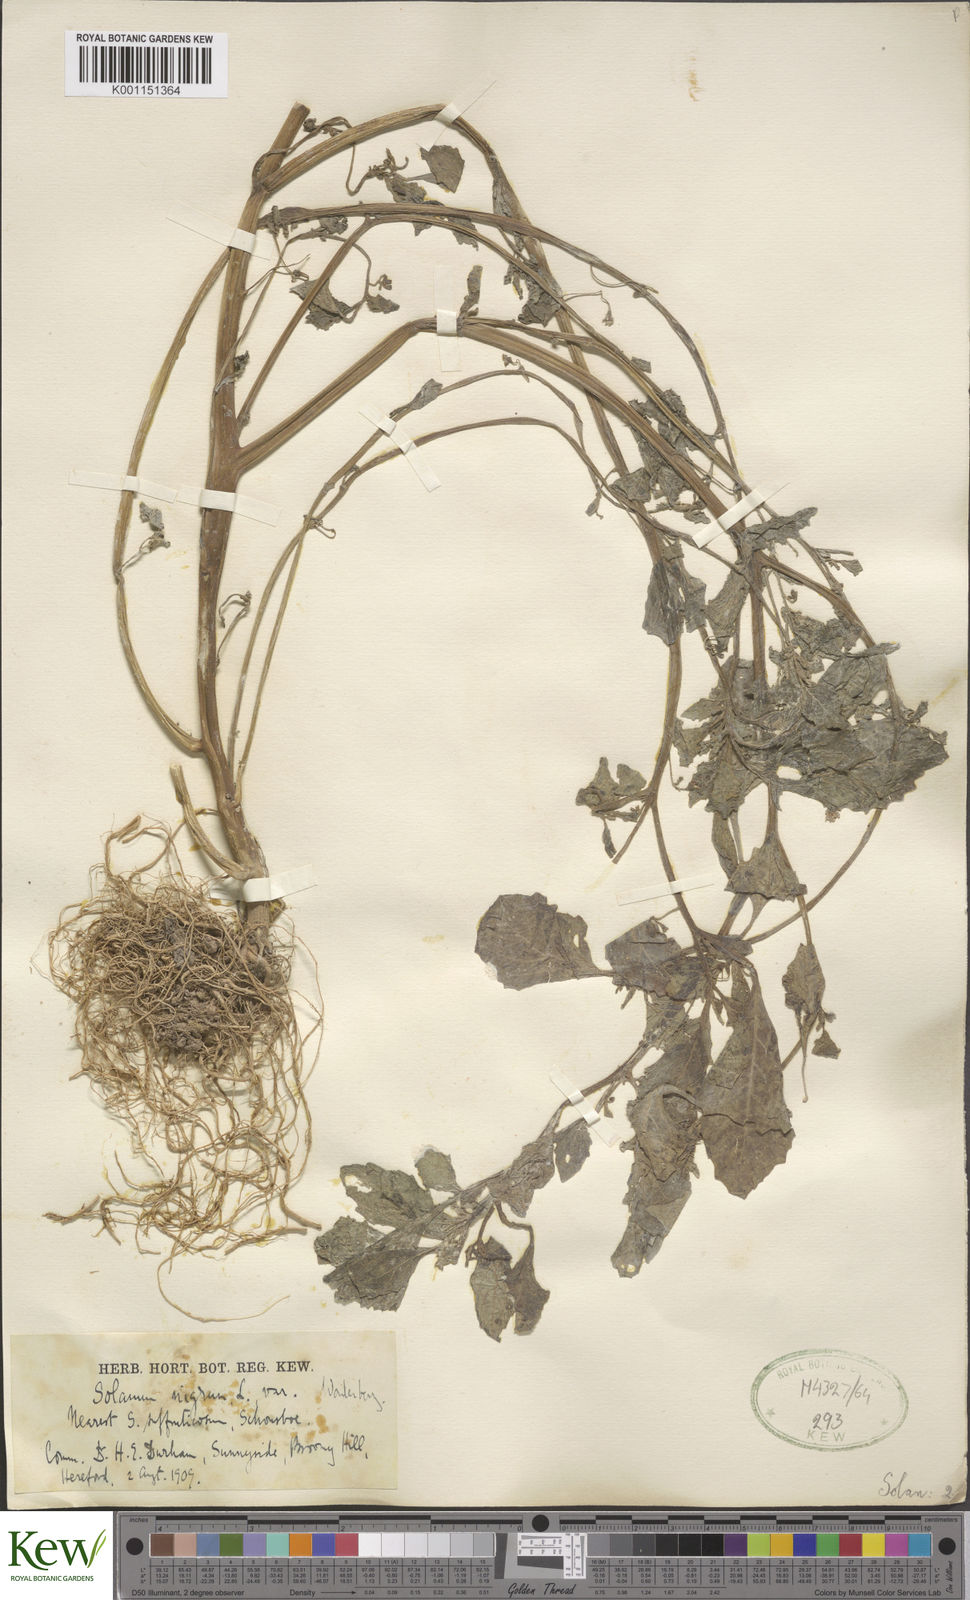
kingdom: Plantae
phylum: Tracheophyta
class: Magnoliopsida
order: Solanales
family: Solanaceae
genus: Solanum
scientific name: Solanum scabrum
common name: Garden-huckleberry
